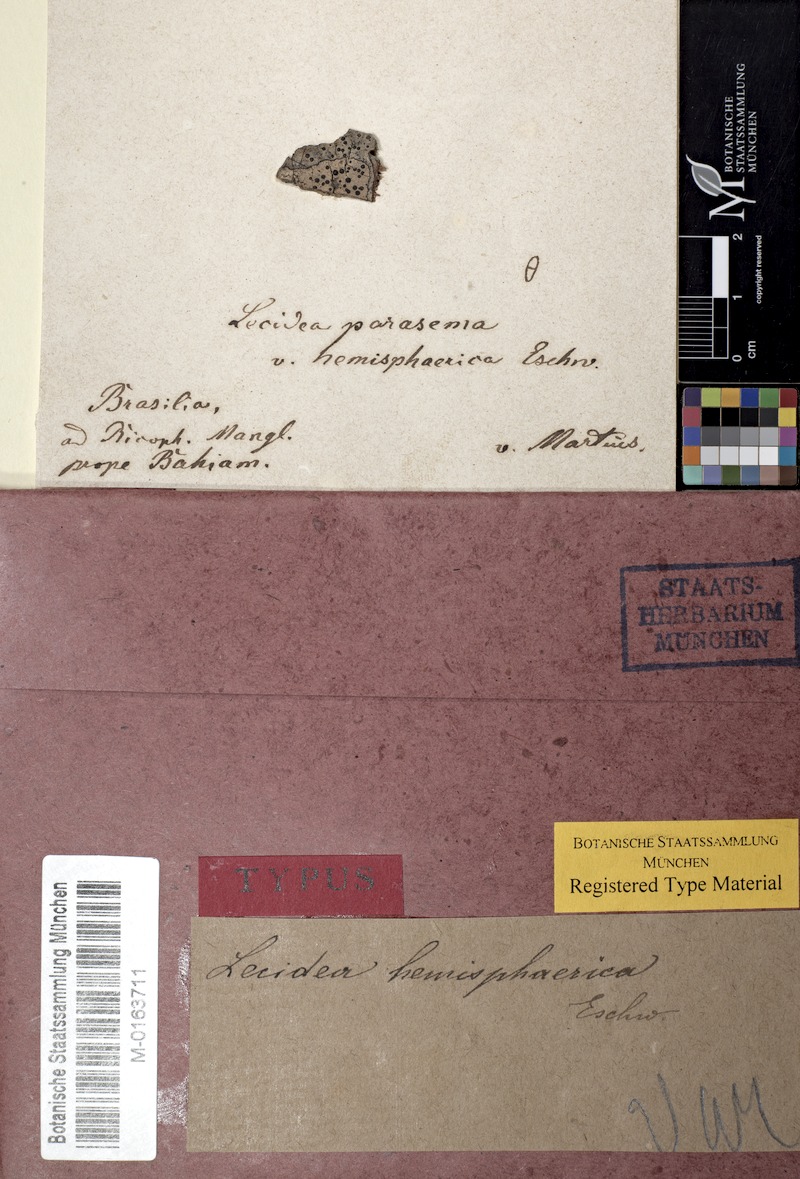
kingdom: Fungi
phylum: Ascomycota
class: Lecanoromycetes
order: Lecideales
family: Lecideaceae
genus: Lecidea
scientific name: Lecidea parasema
